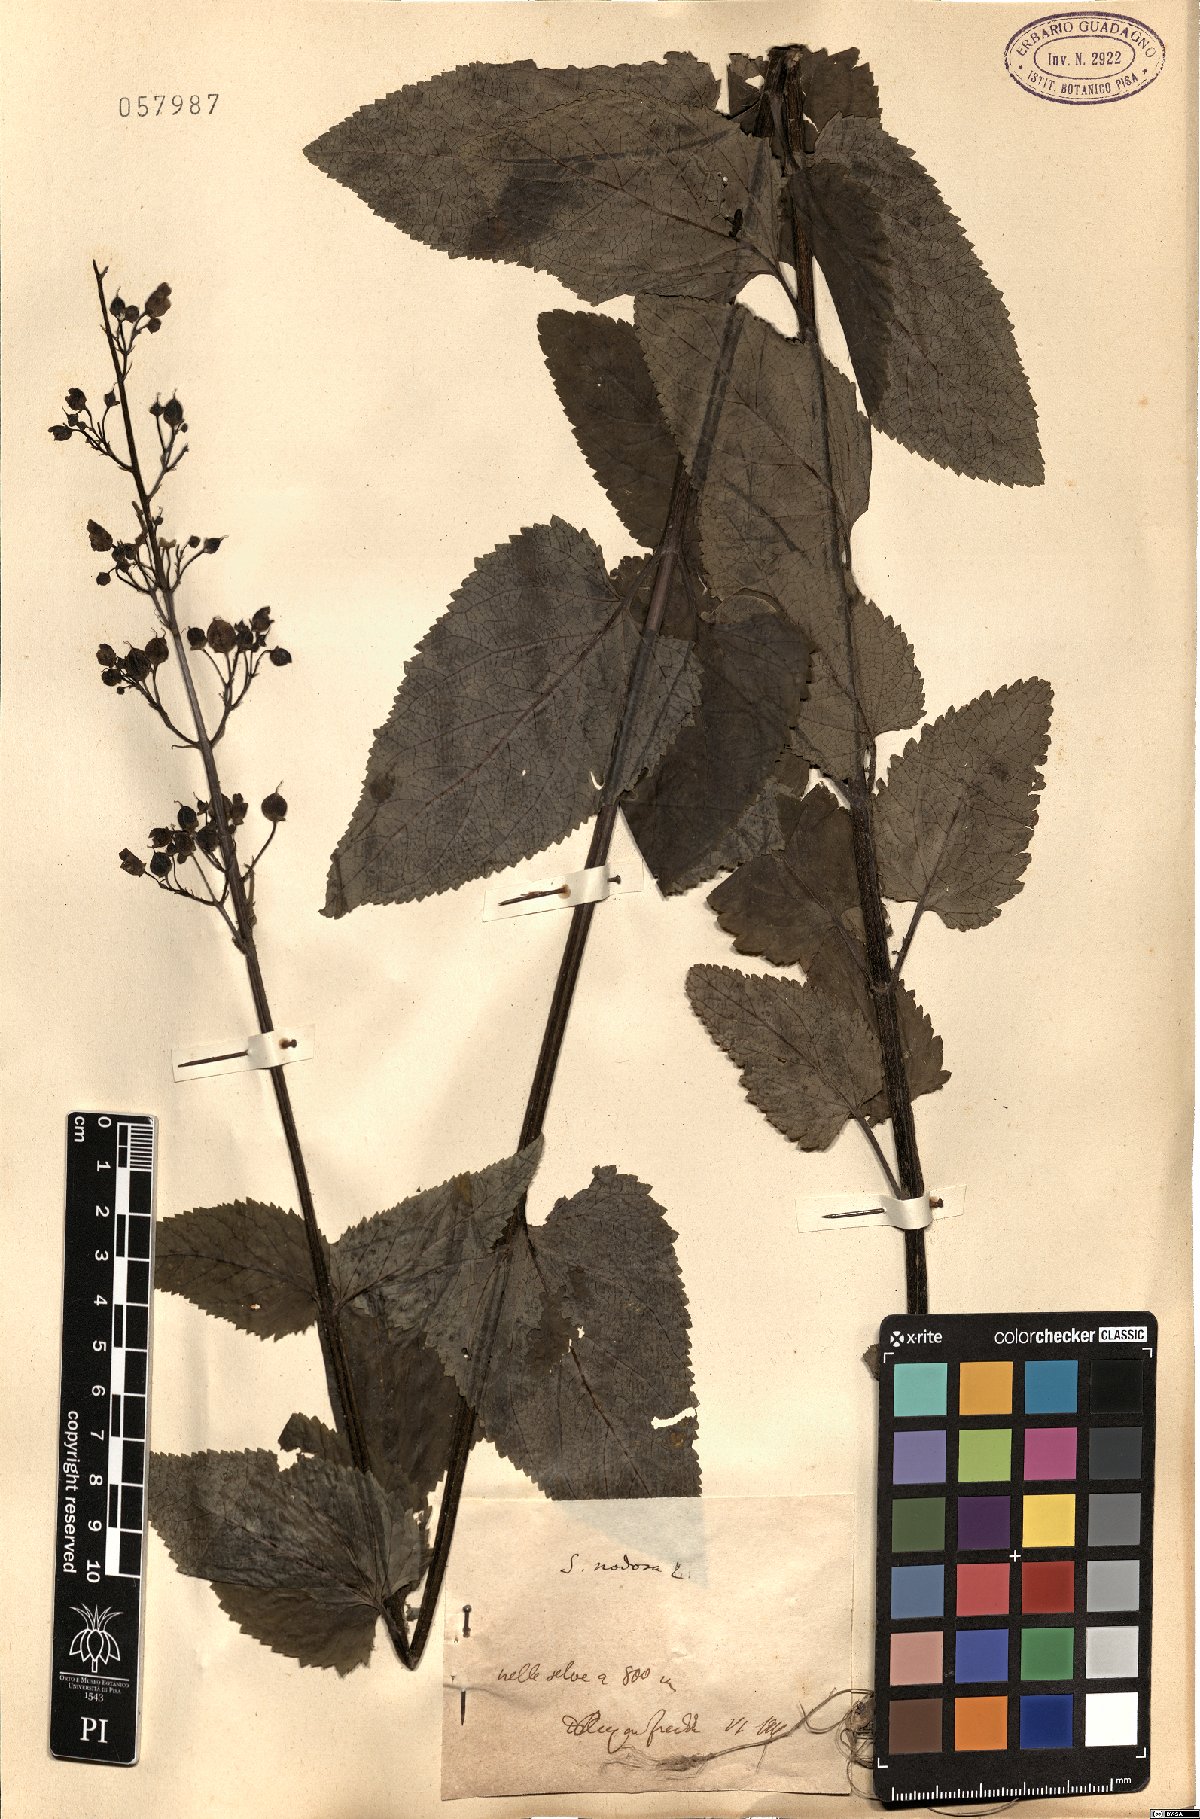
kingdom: Plantae
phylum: Tracheophyta
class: Magnoliopsida
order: Lamiales
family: Scrophulariaceae
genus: Scrophularia
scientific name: Scrophularia nodosa
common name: Common figwort
